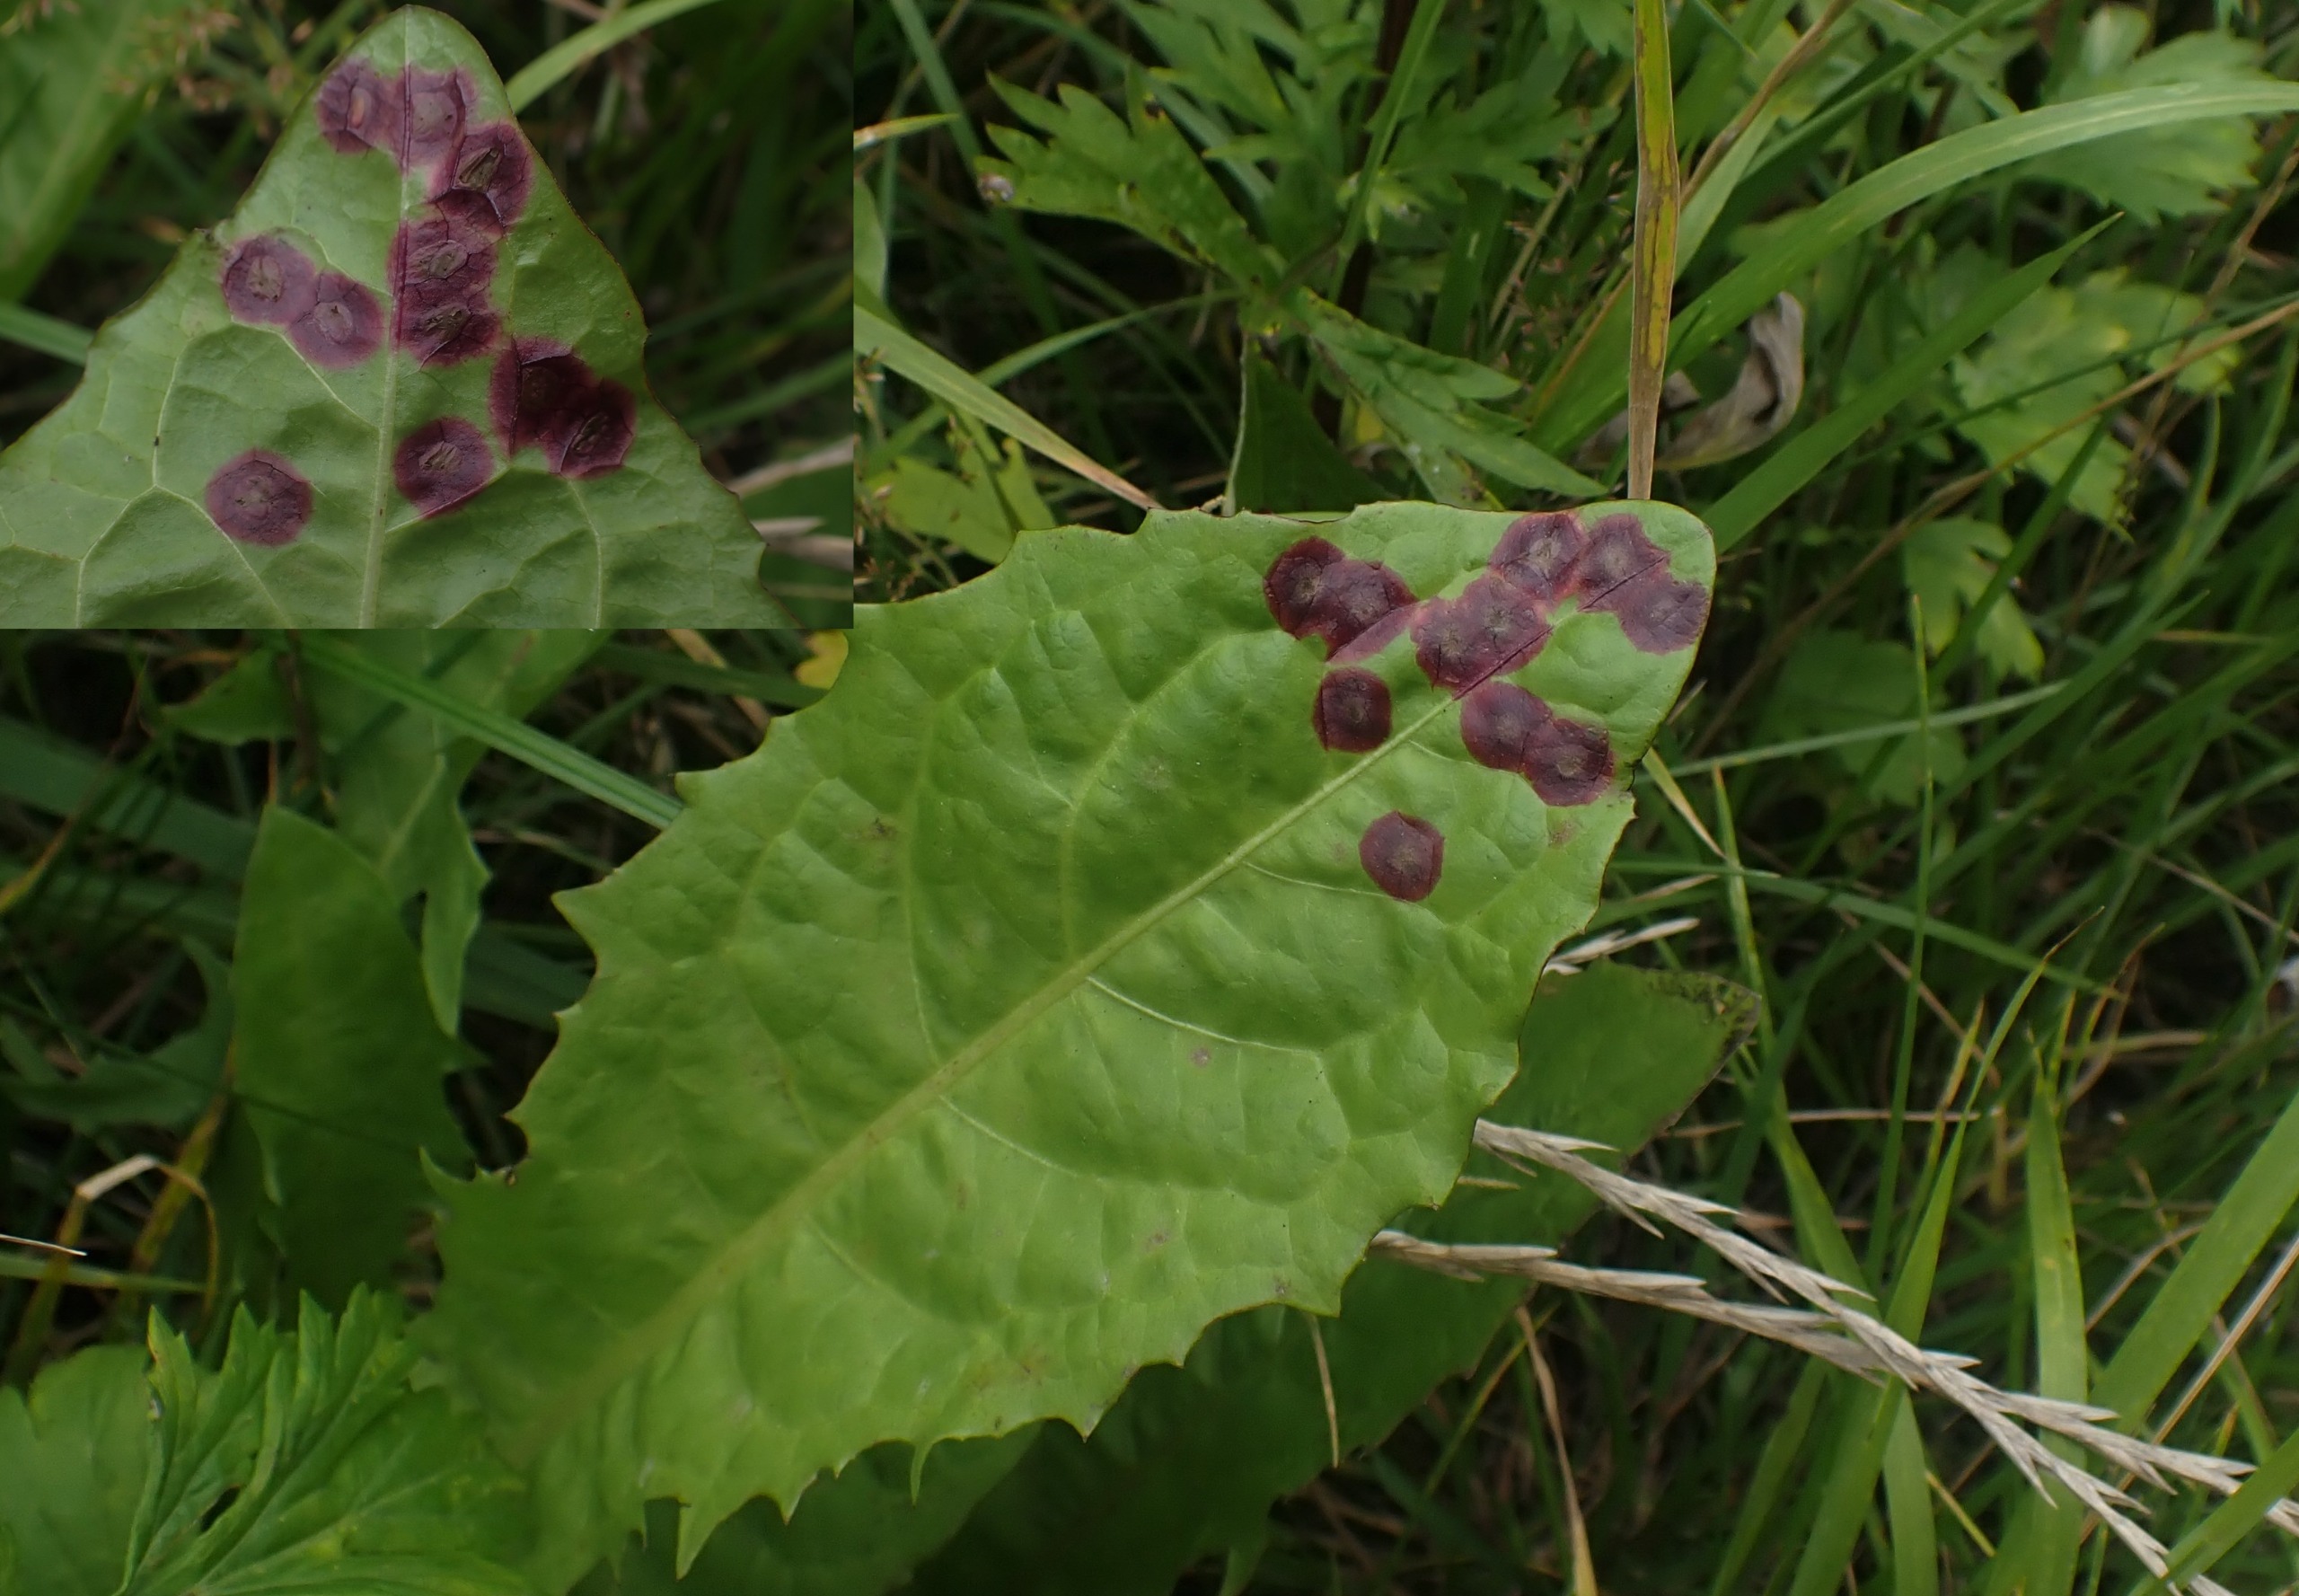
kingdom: Animalia
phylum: Arthropoda
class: Insecta
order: Diptera
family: Cecidomyiidae
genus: Cystiphora
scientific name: Cystiphora taraxaci
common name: Mælkebøttegalmyg
